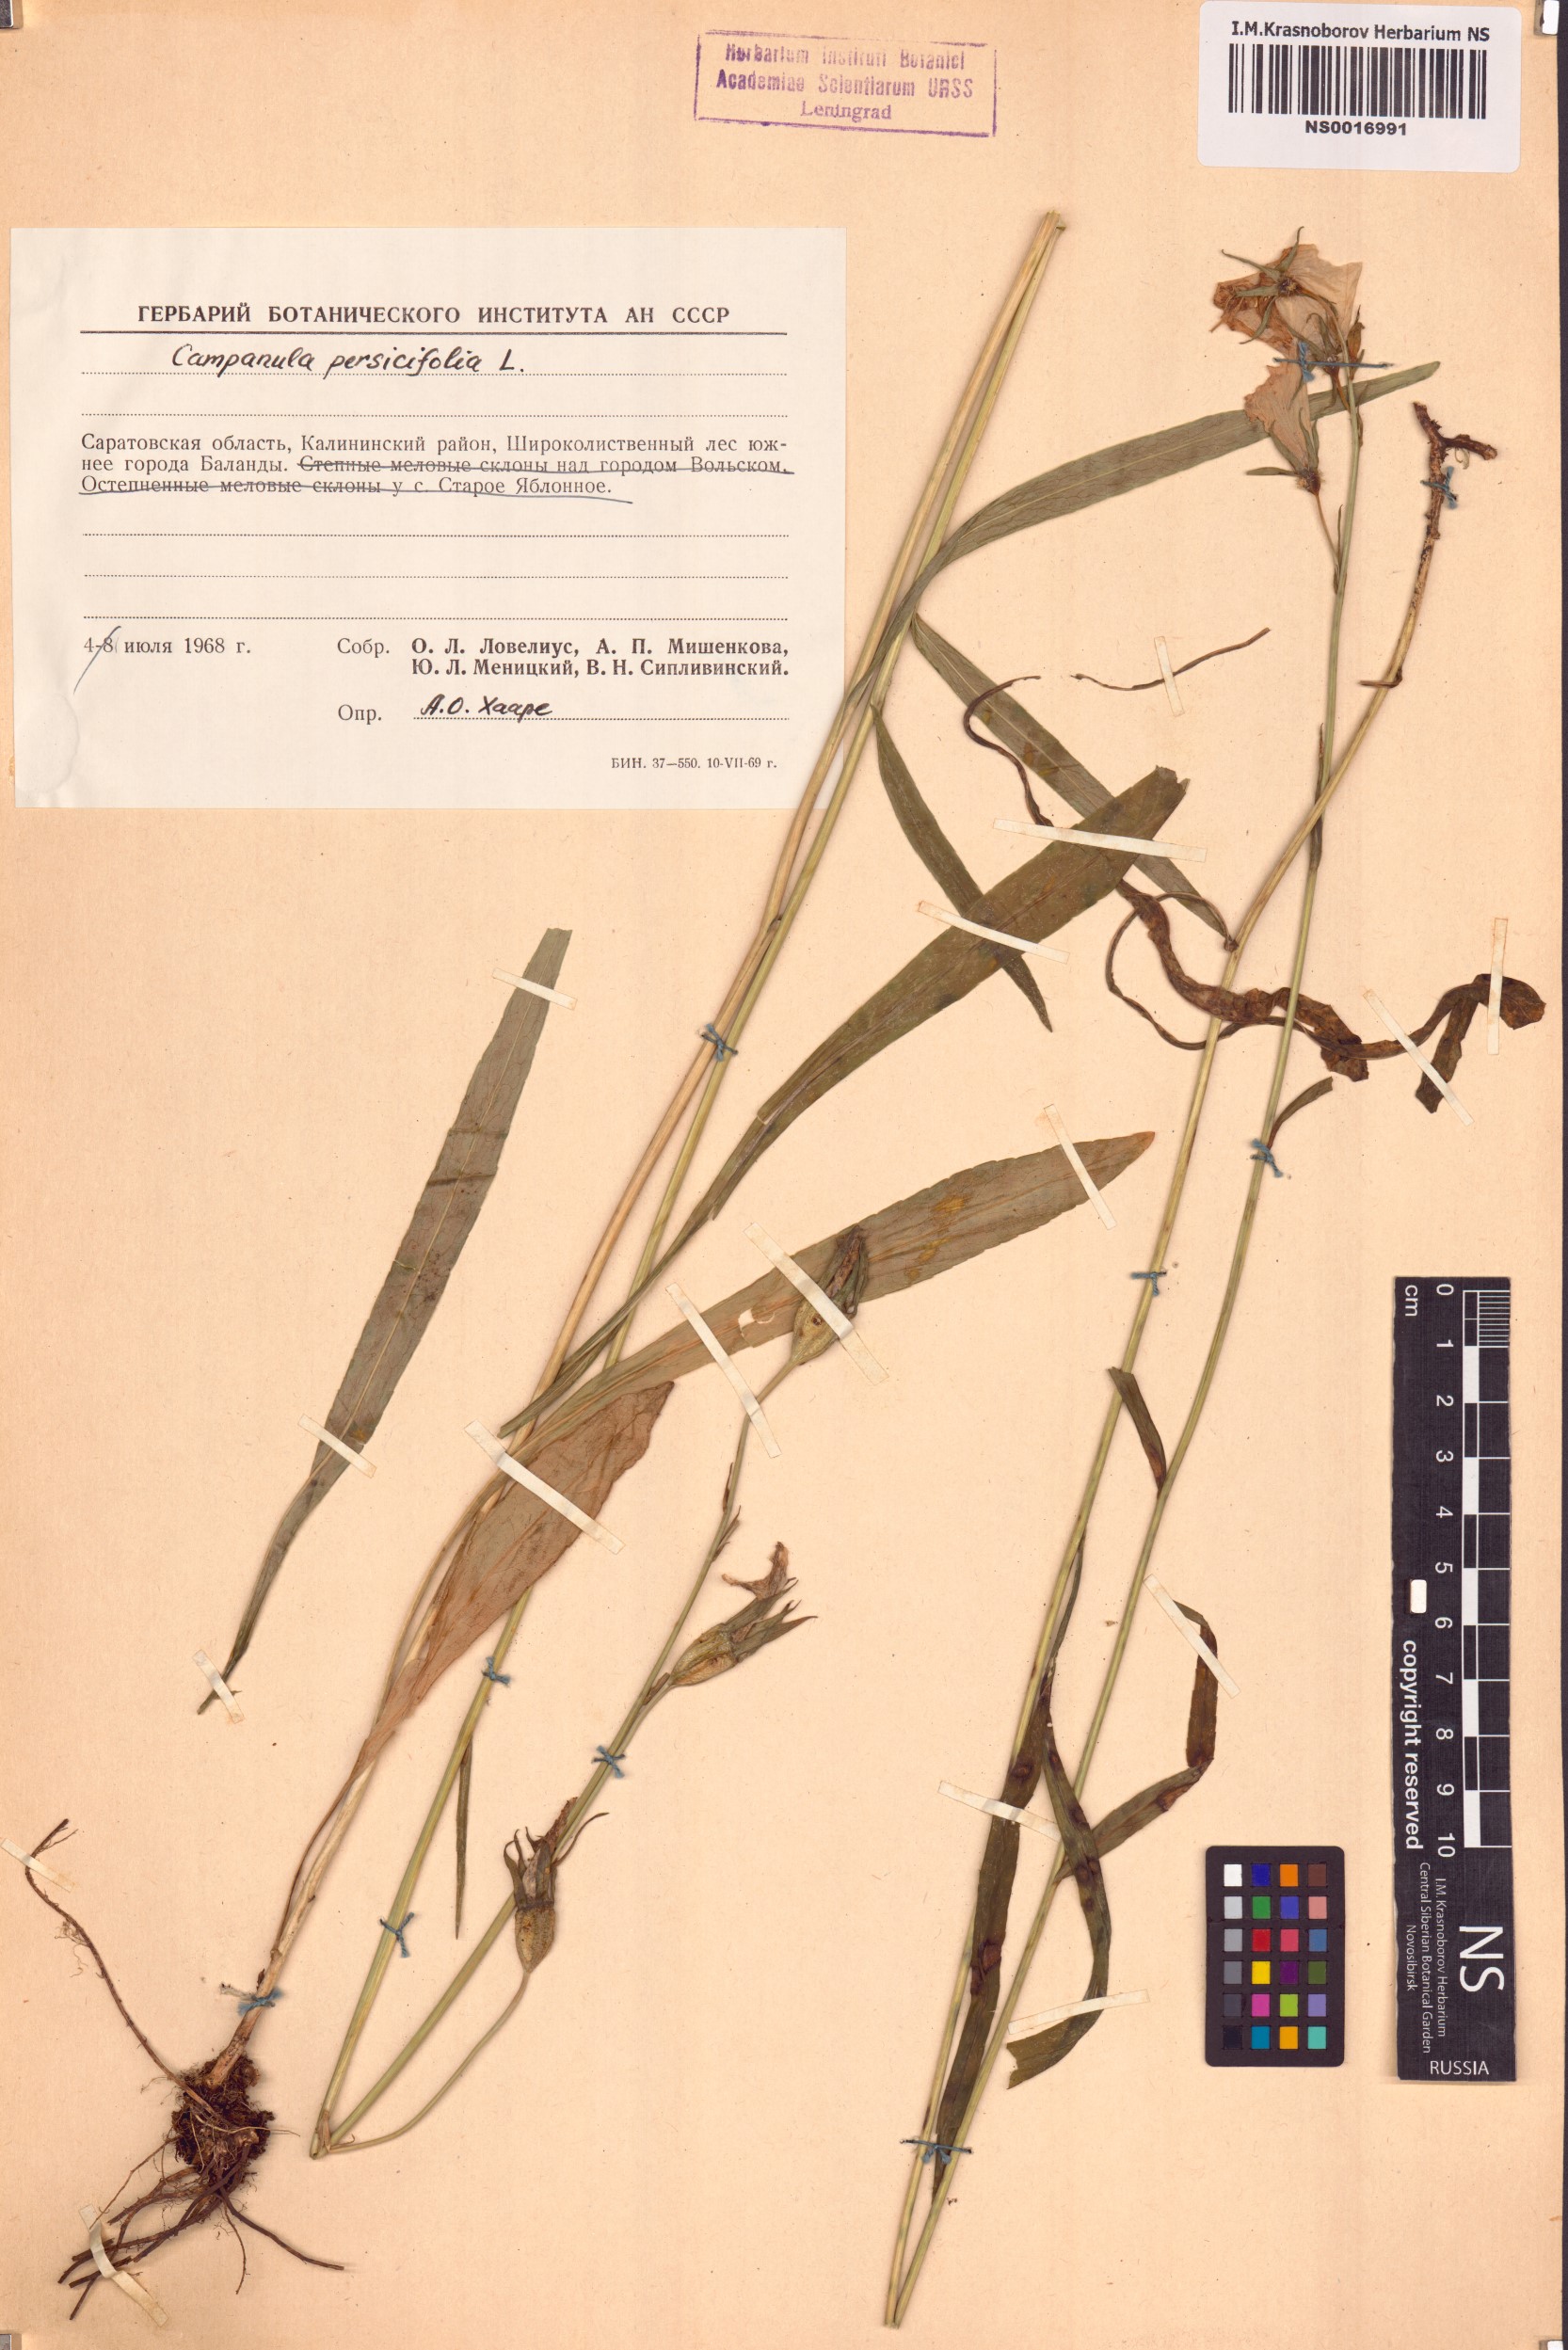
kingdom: Plantae
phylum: Tracheophyta
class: Magnoliopsida
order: Asterales
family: Campanulaceae
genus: Campanula
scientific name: Campanula persicifolia
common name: Peach-leaved bellflower
